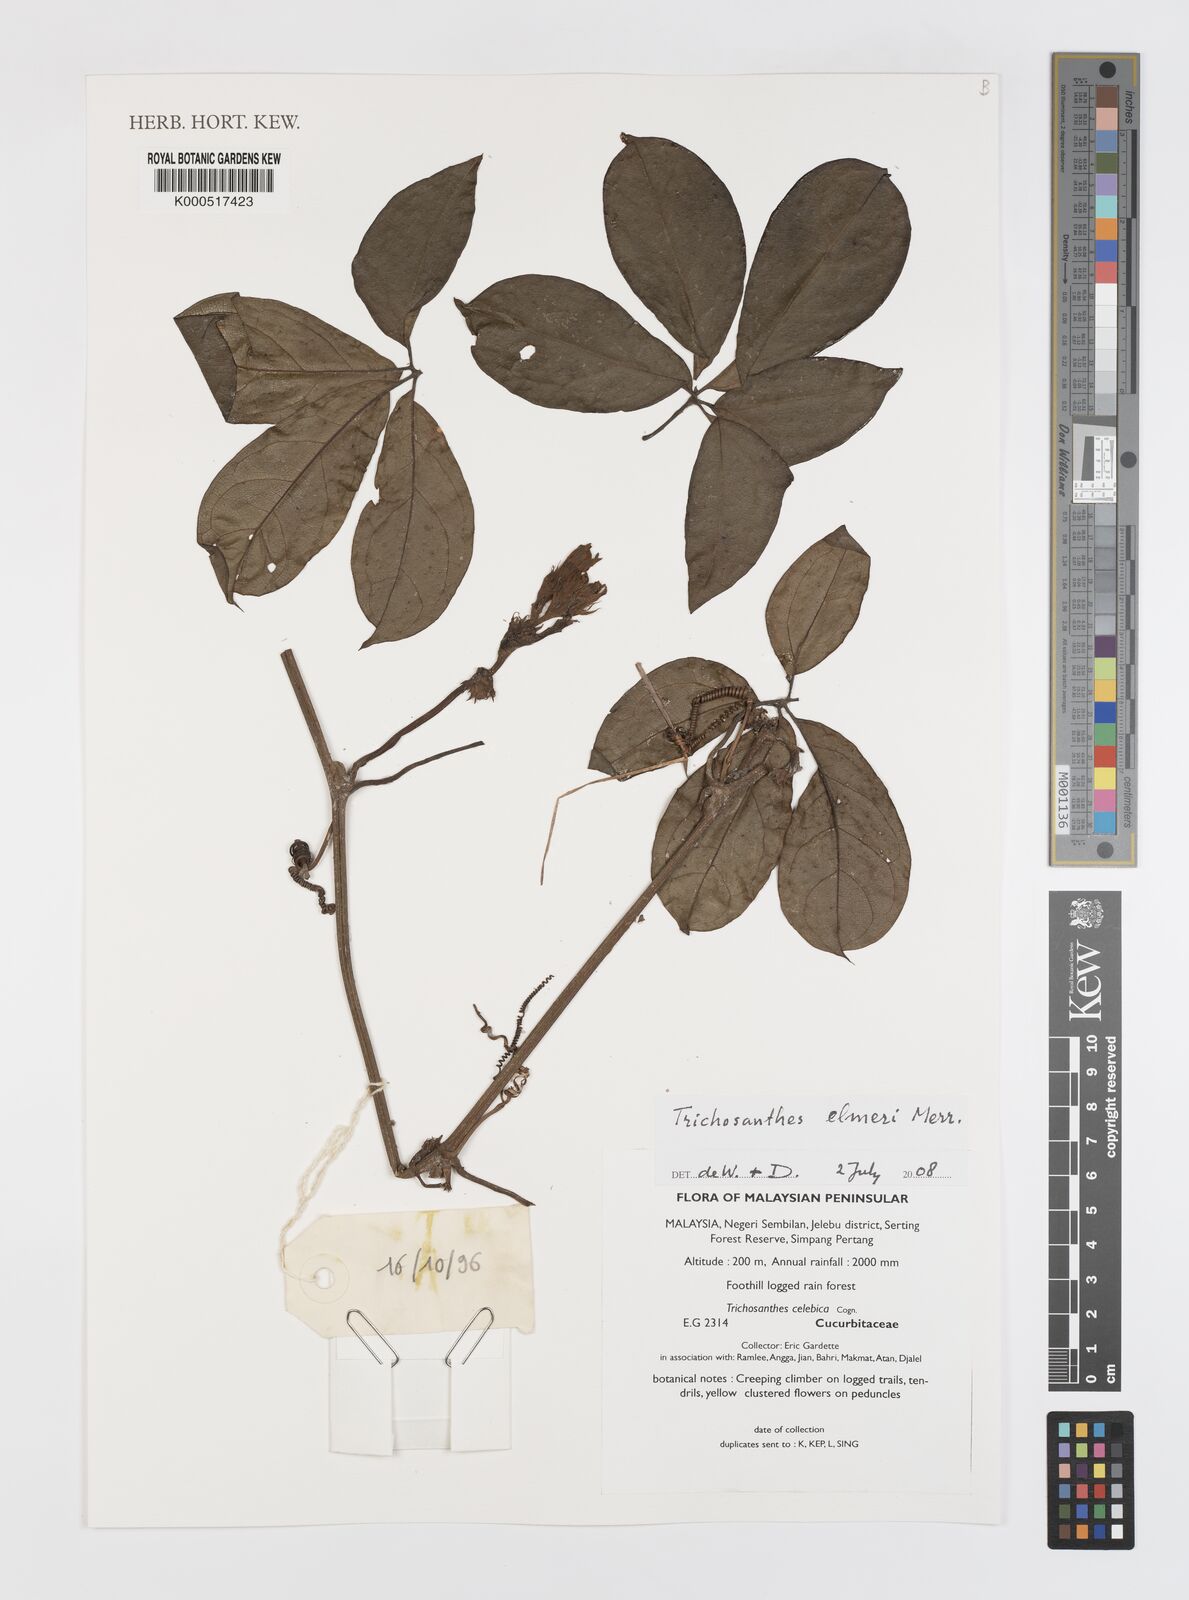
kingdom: Plantae
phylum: Tracheophyta
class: Magnoliopsida
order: Cucurbitales
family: Cucurbitaceae
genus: Trichosanthes
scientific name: Trichosanthes elmeri
